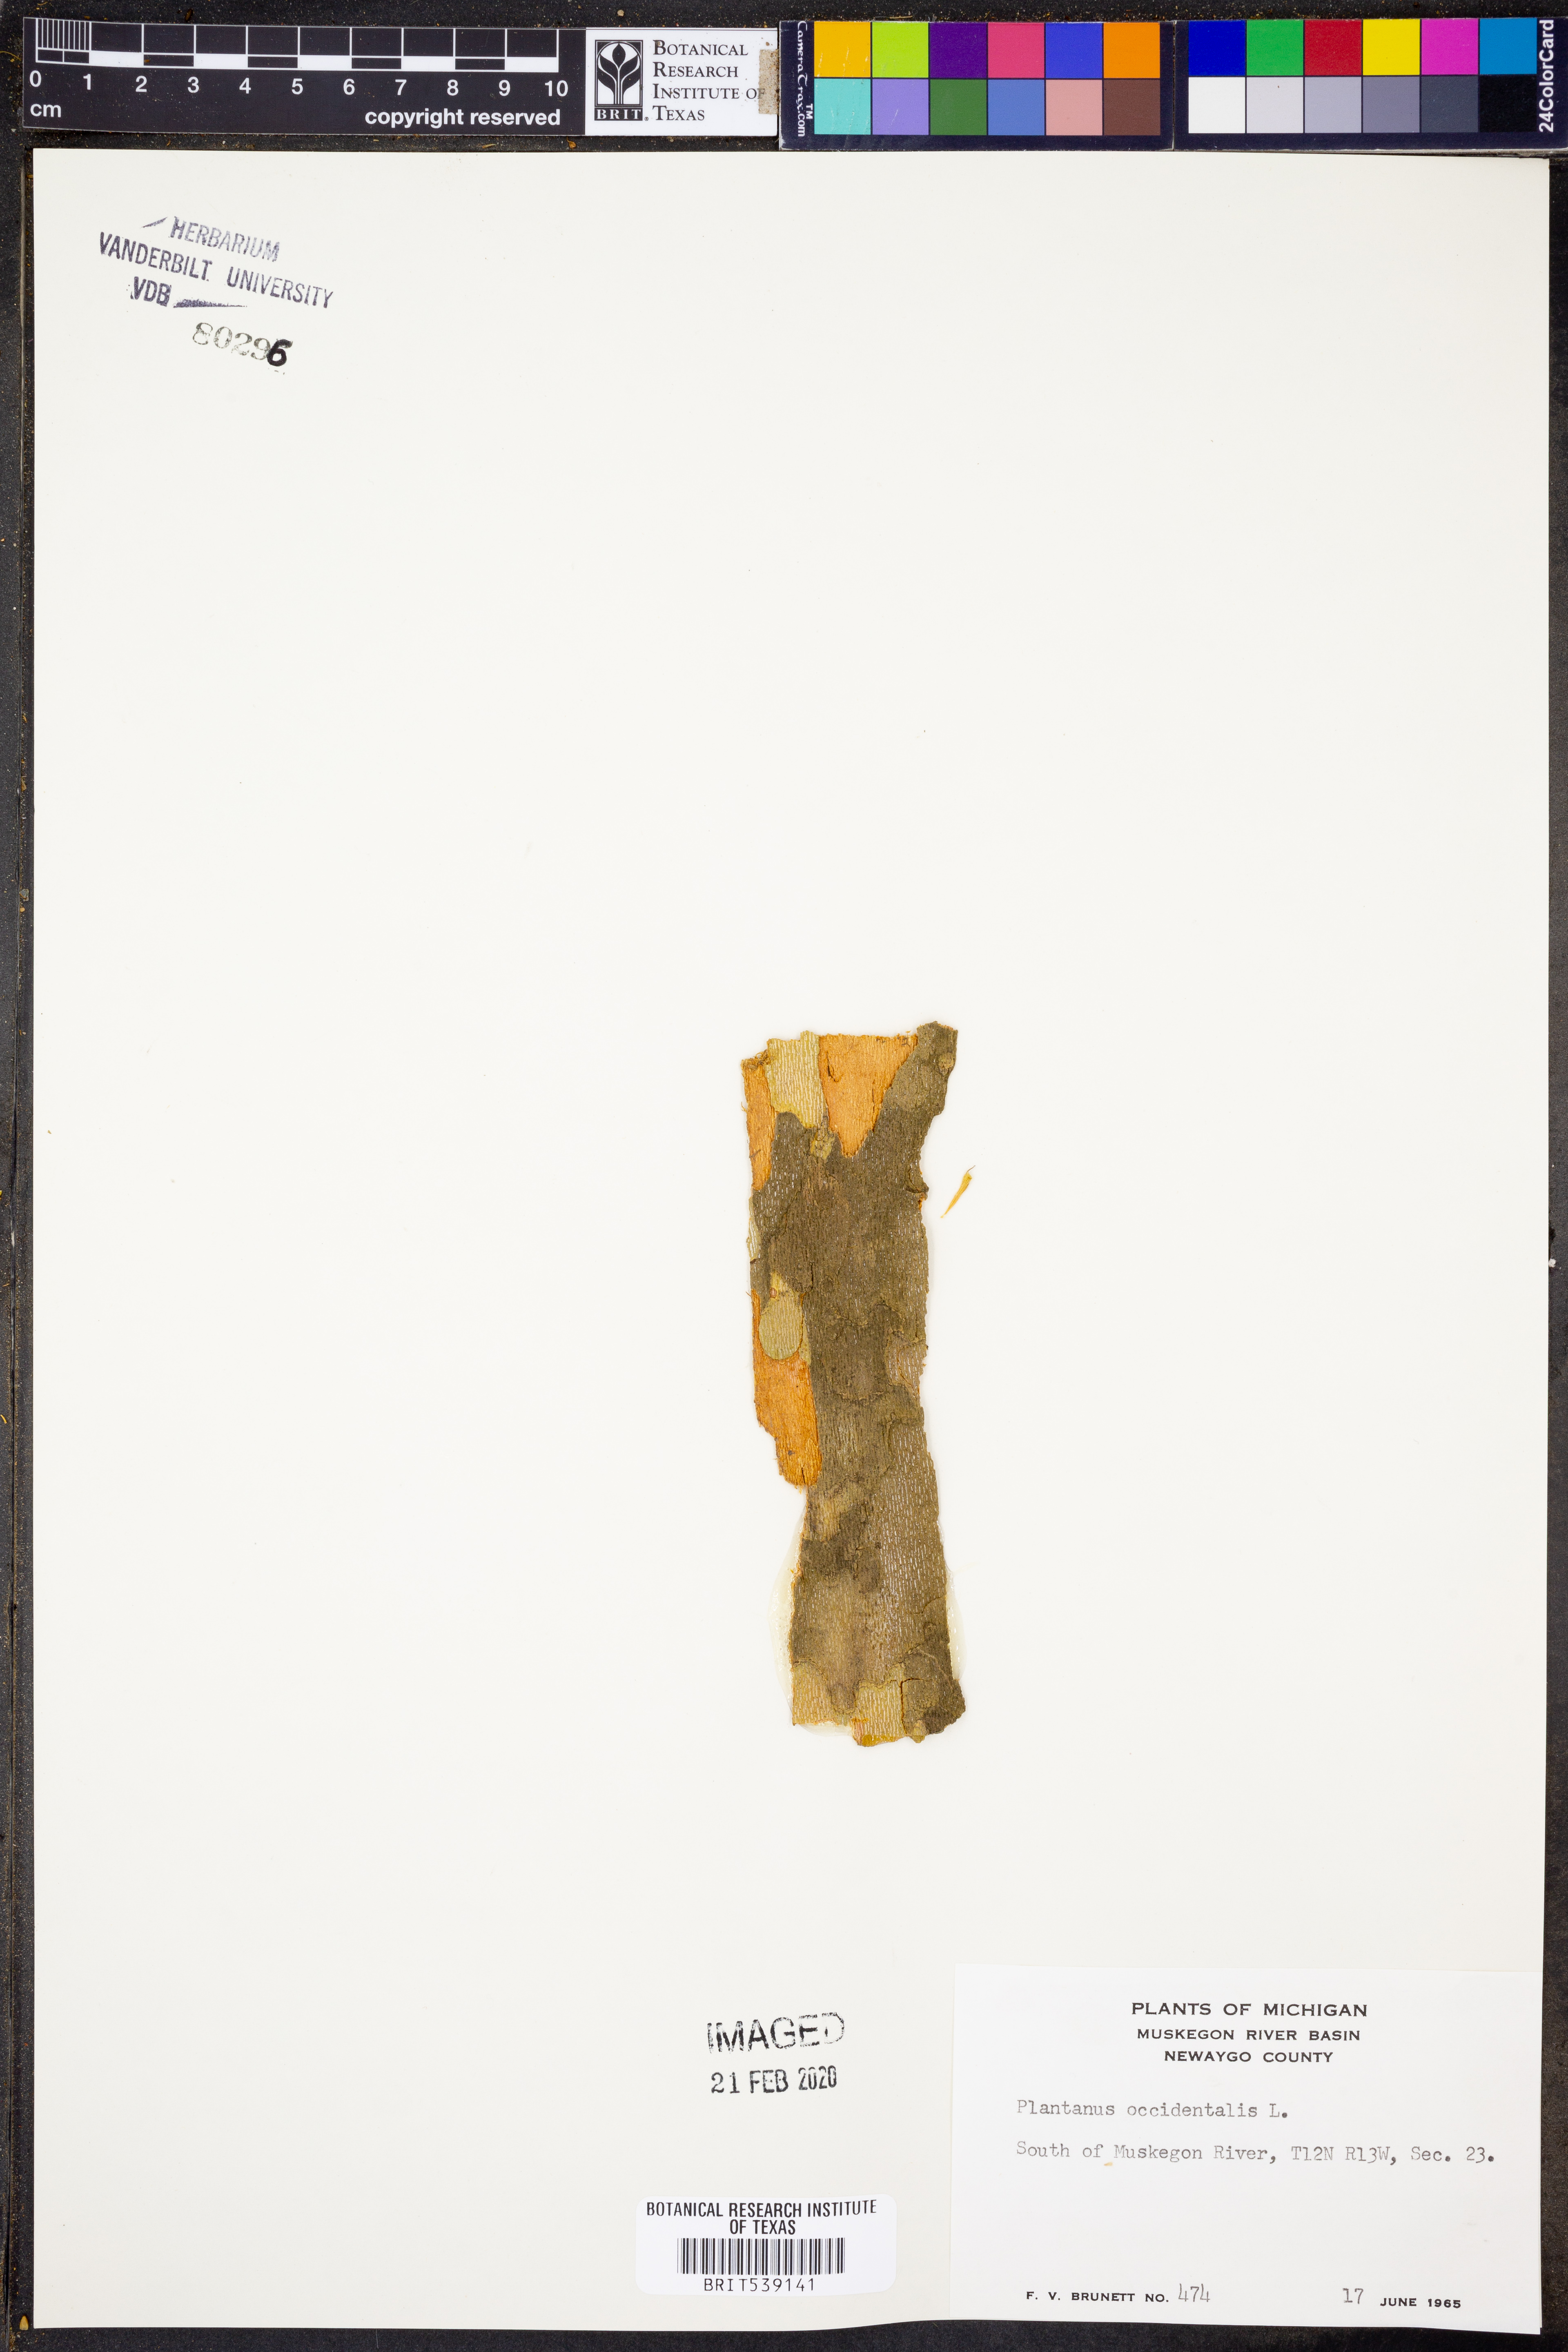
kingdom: Plantae
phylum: Tracheophyta
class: Magnoliopsida
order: Proteales
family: Platanaceae
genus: Platanus
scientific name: Platanus occidentalis
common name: American sycamore
